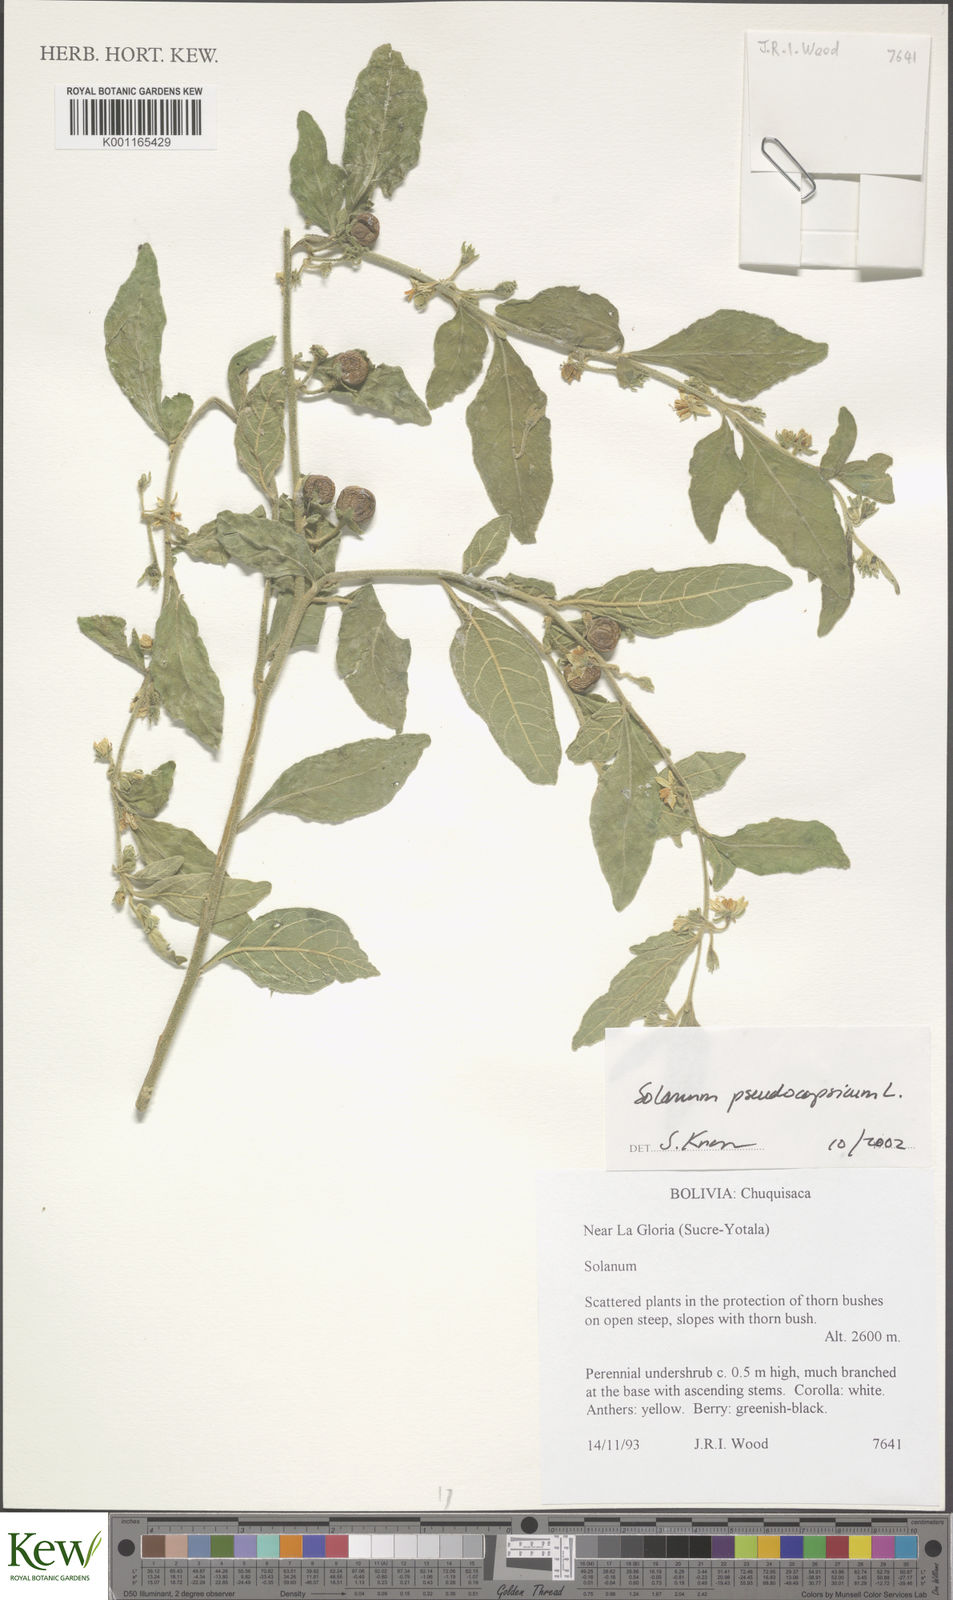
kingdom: Plantae
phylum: Tracheophyta
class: Magnoliopsida
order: Solanales
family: Solanaceae
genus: Solanum
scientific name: Solanum pseudocapsicum
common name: Jerusalem cherry
